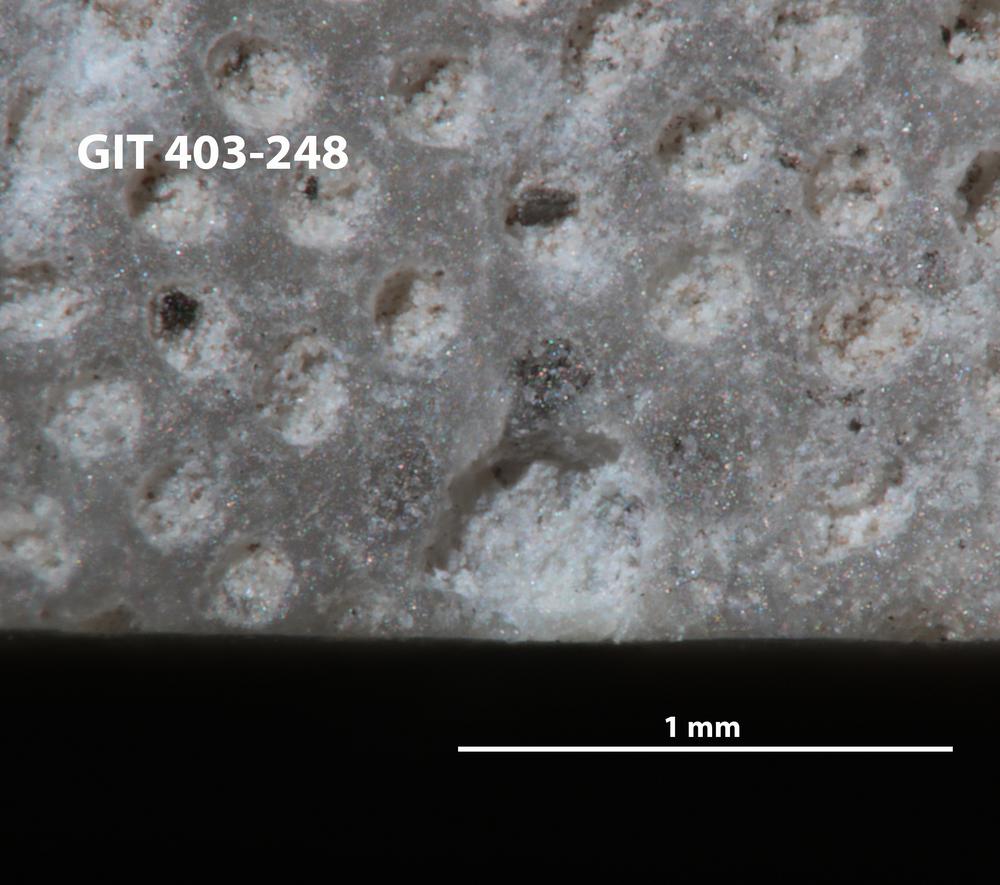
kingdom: Animalia
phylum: Bryozoa
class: Stenolaemata
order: Cystoporida
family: Fistuliporidae
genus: Fistulipora
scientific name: Fistulipora
